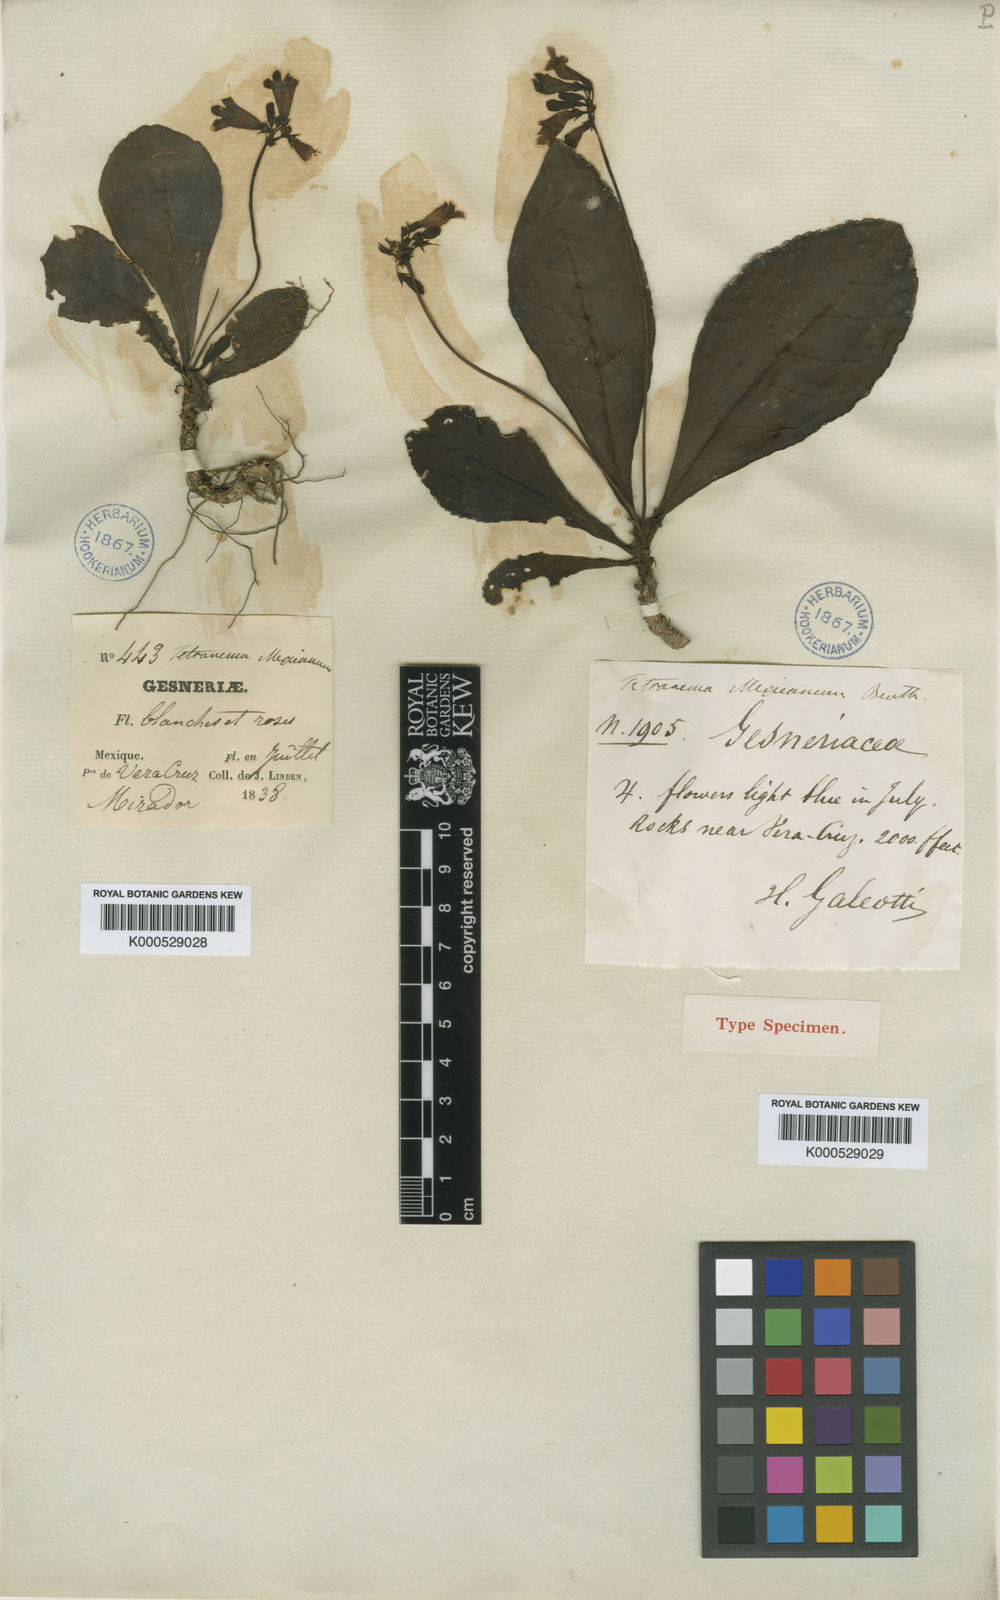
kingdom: Plantae
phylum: Tracheophyta
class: Magnoliopsida
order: Lamiales
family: Plantaginaceae
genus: Tetranema
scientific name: Tetranema roseum
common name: Mexican-violet
